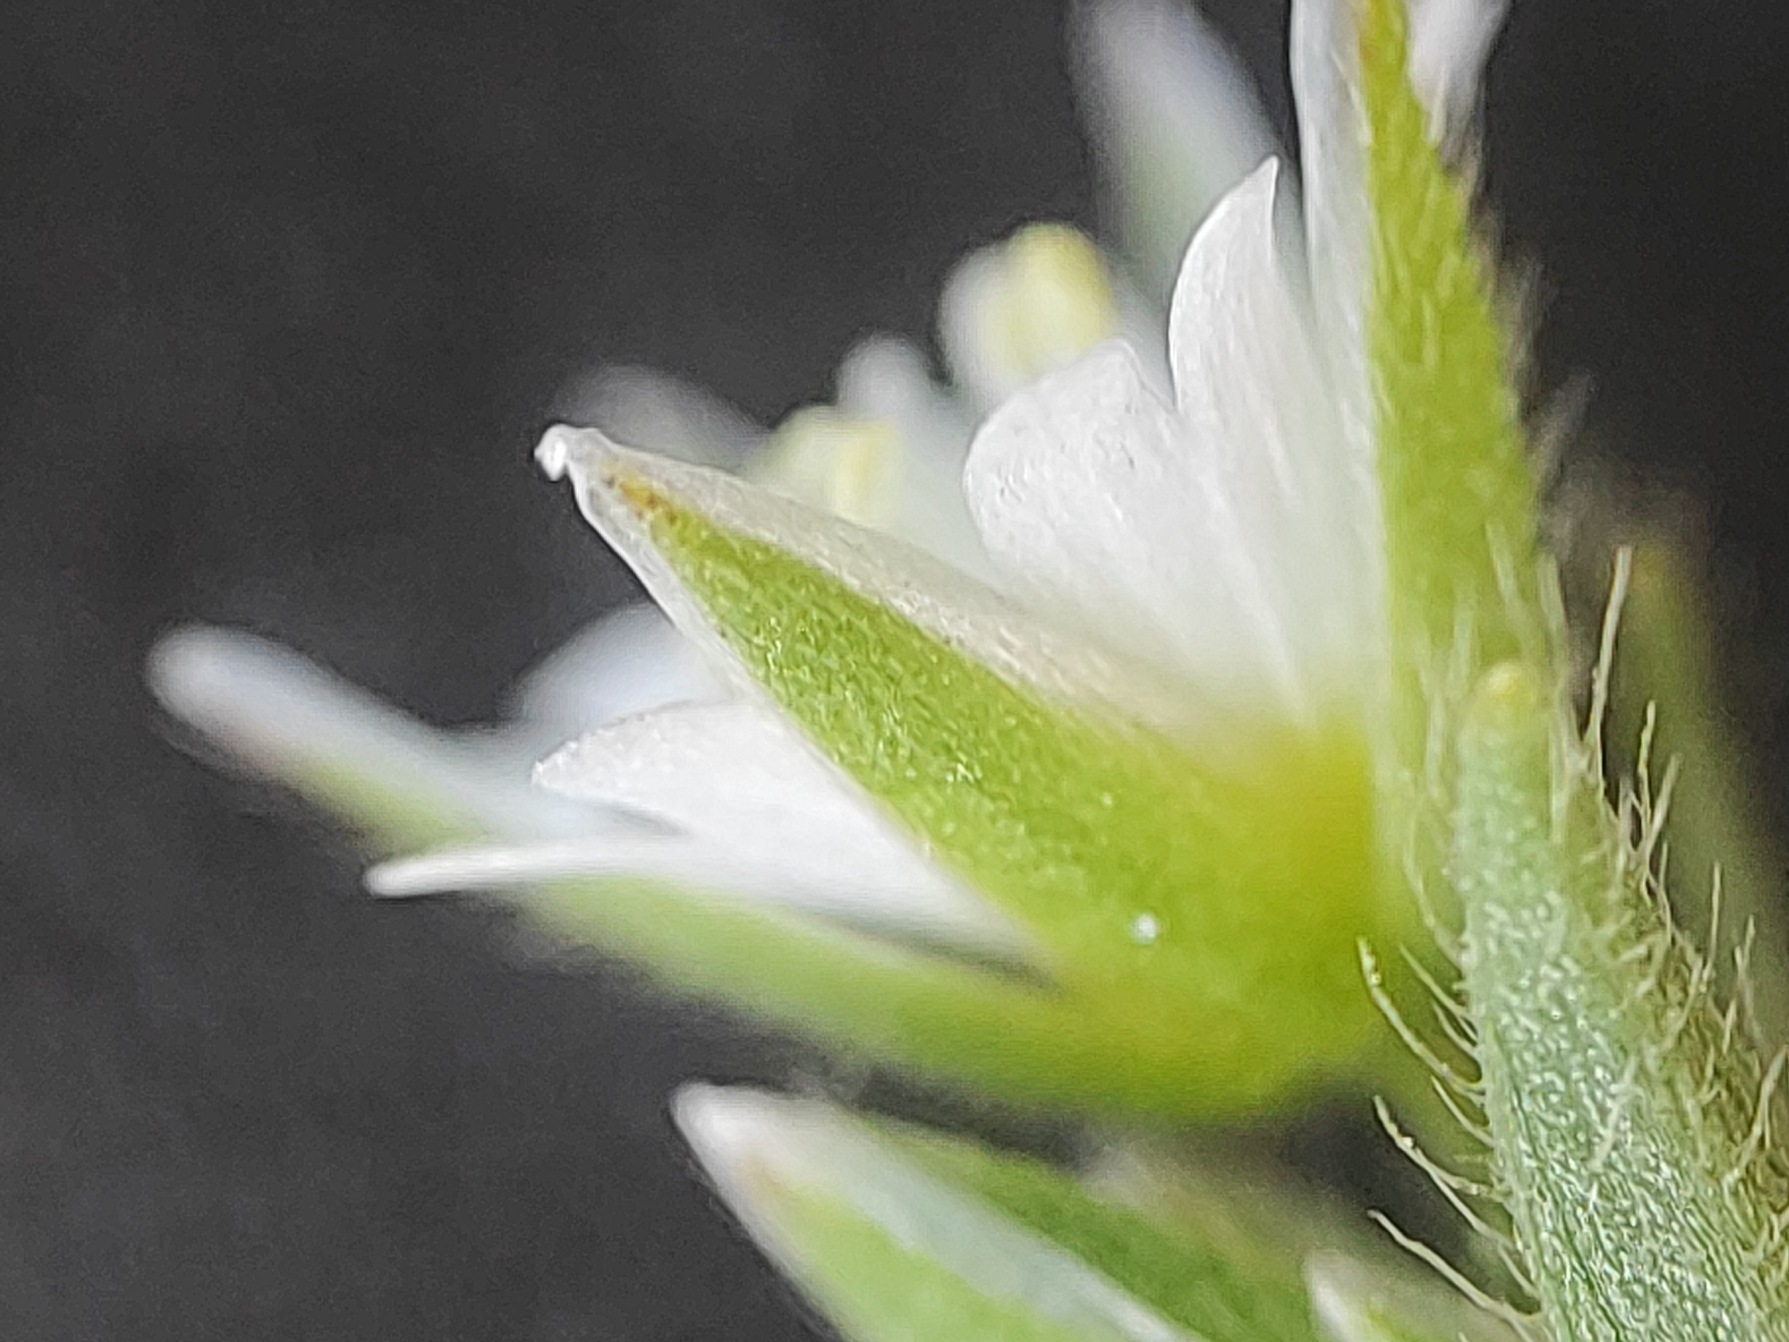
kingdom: Plantae
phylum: Tracheophyta
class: Magnoliopsida
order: Caryophyllales
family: Caryophyllaceae
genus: Cerastium
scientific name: Cerastium fontanum
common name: Almindelig hønsetarm
